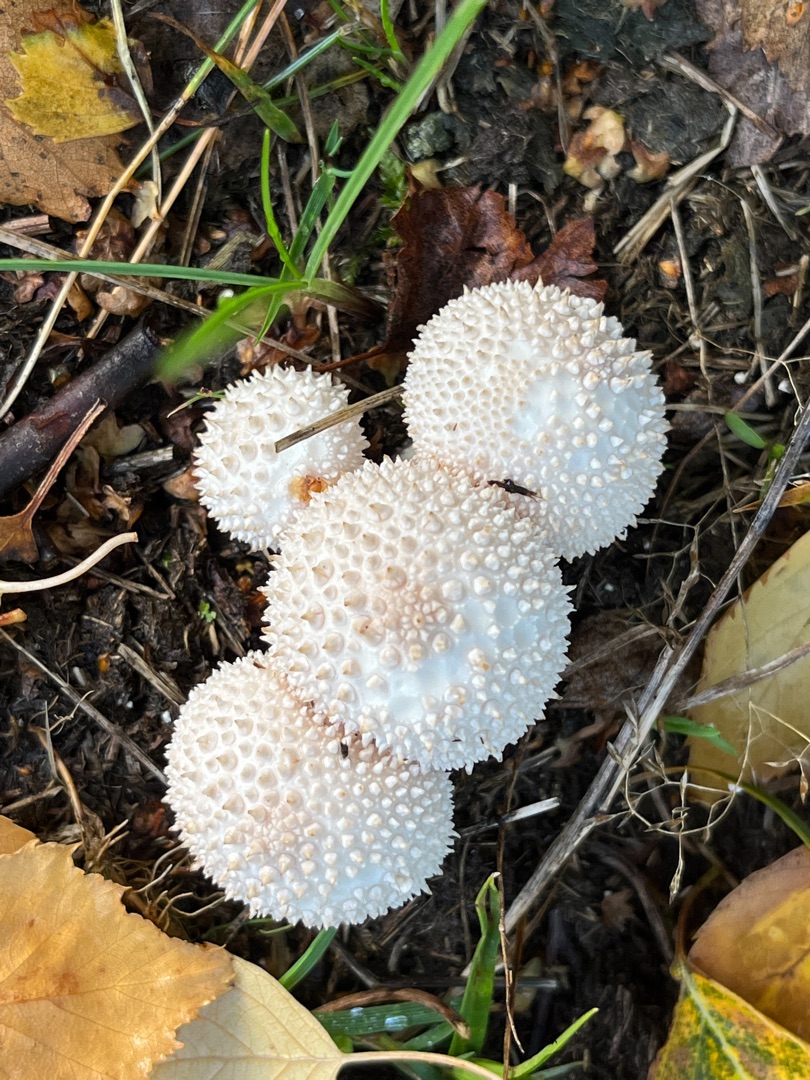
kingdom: Fungi
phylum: Basidiomycota
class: Agaricomycetes
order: Agaricales
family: Lycoperdaceae
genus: Lycoperdon
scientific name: Lycoperdon perlatum
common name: Krystal-støvbold
